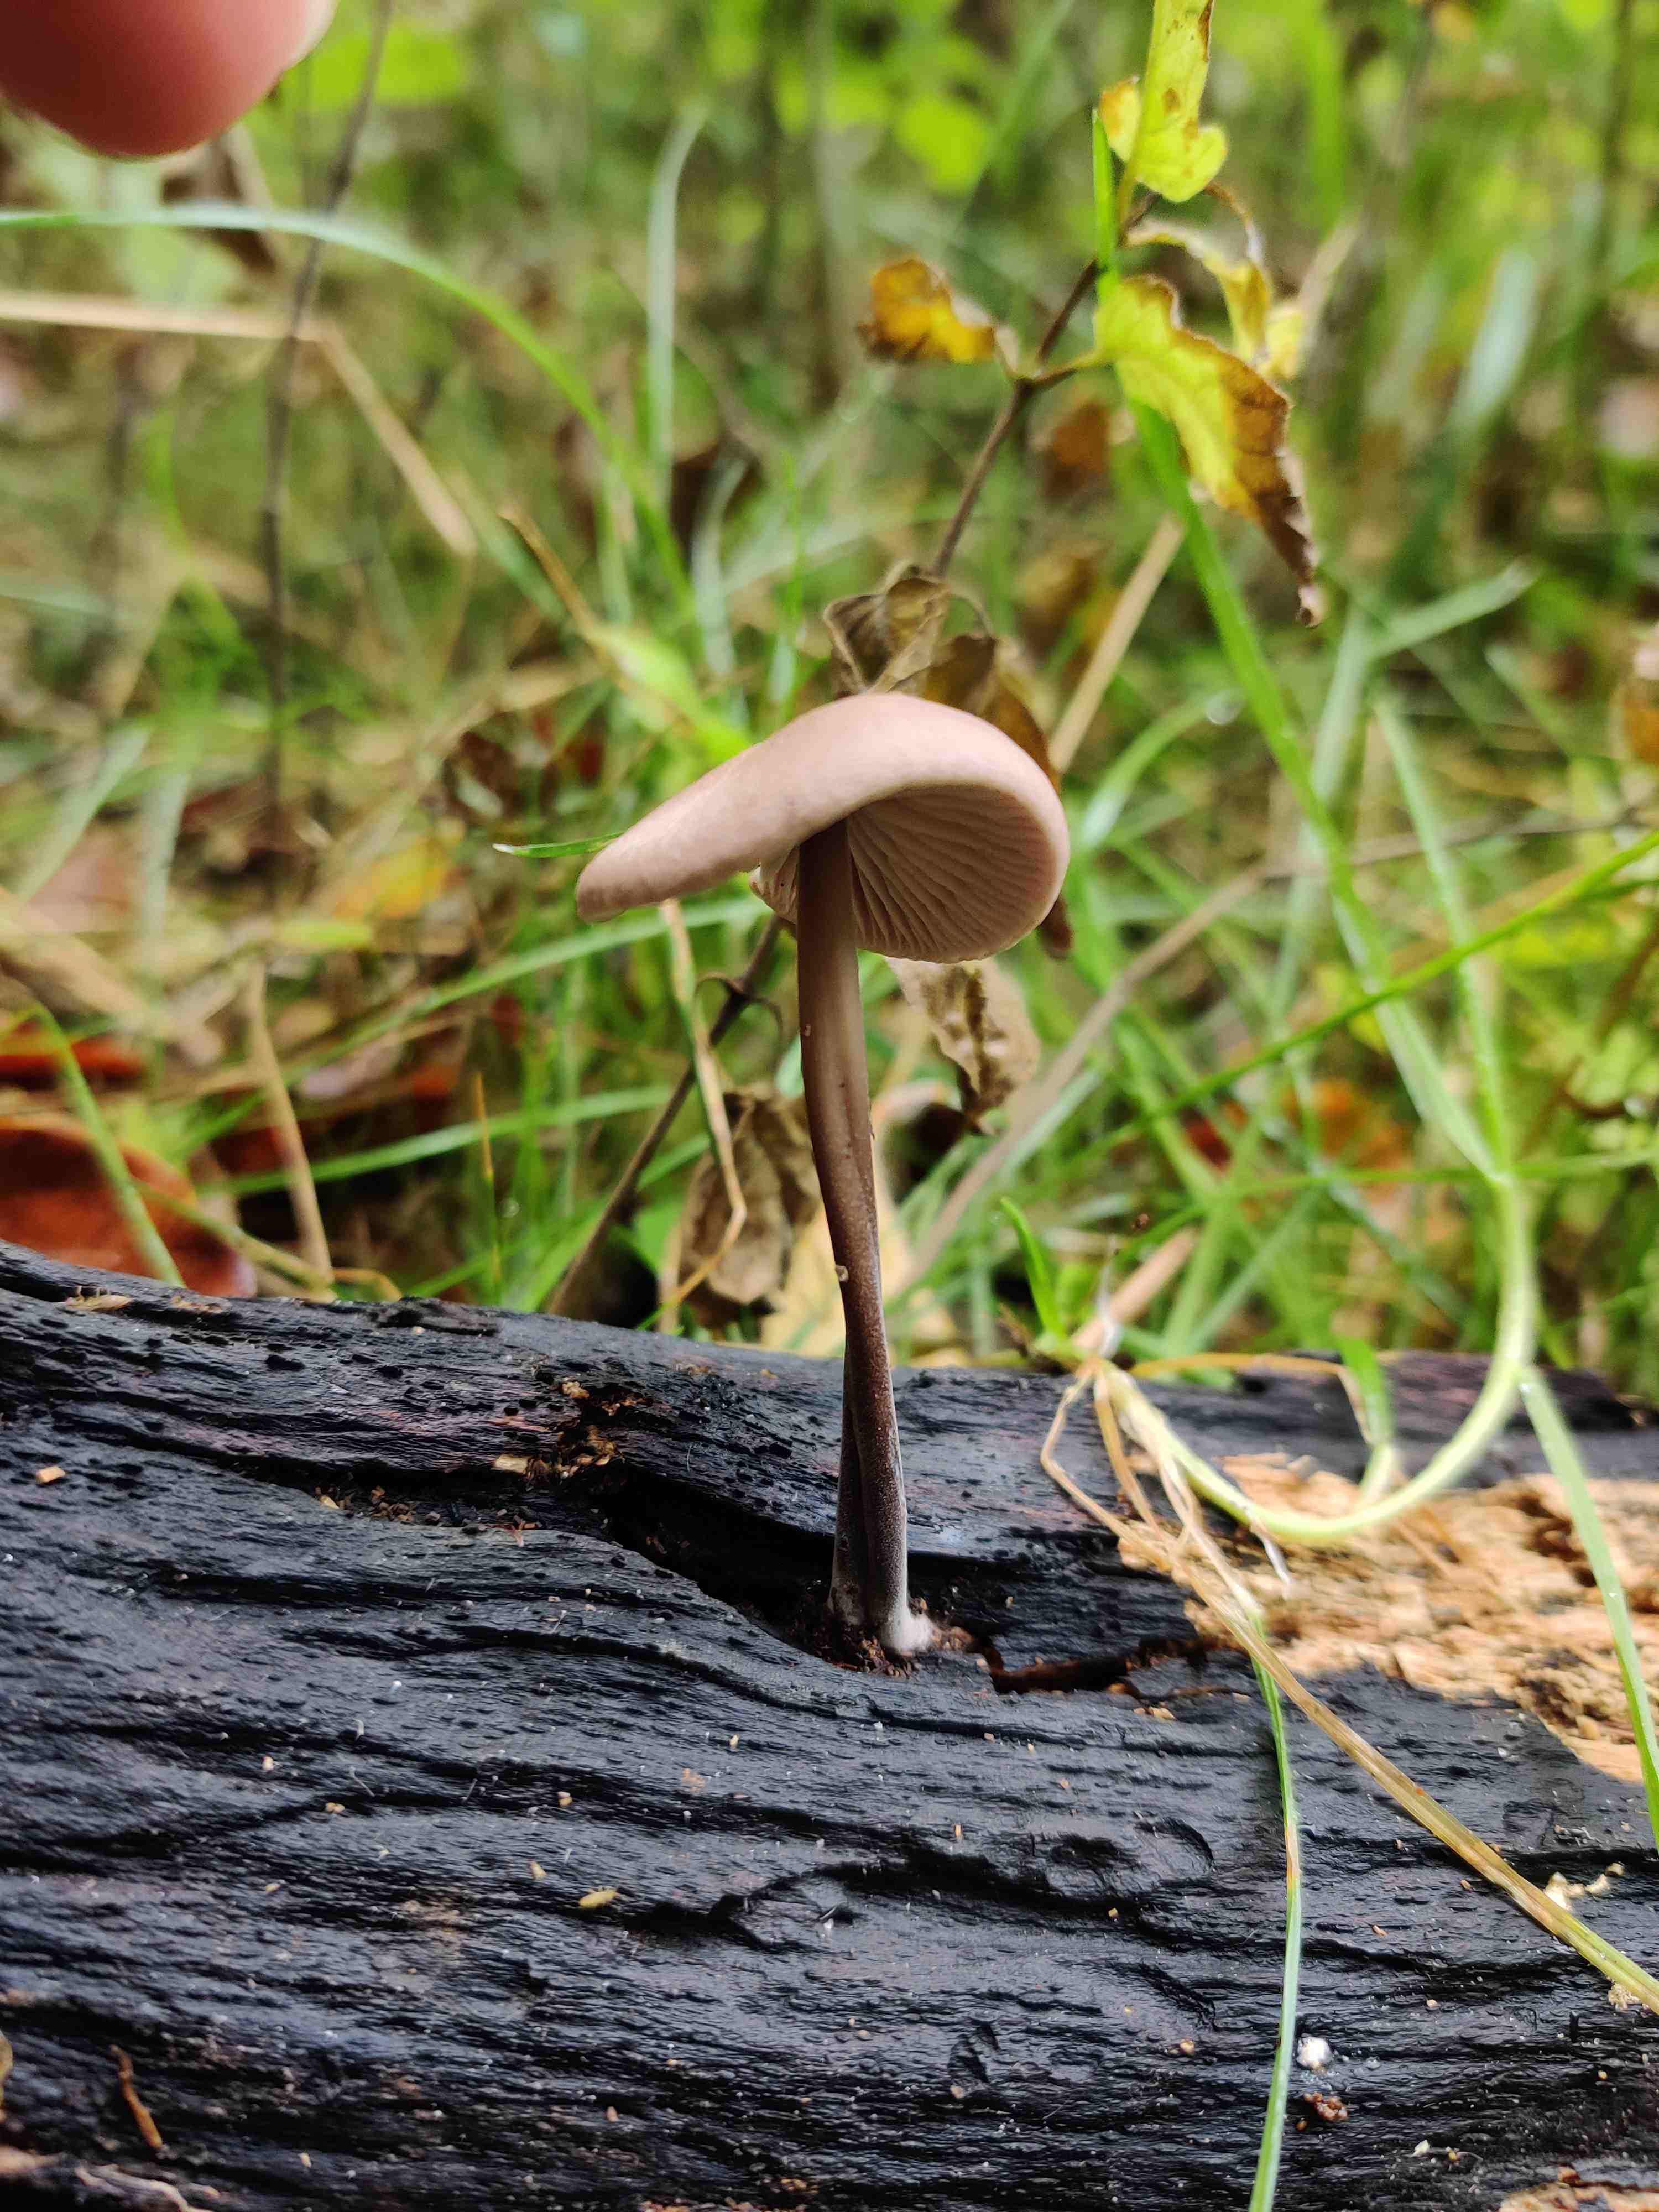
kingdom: Fungi
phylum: Basidiomycota
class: Agaricomycetes
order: Agaricales
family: Omphalotaceae
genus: Mycetinis
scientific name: Mycetinis alliaceus
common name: stor løghat
